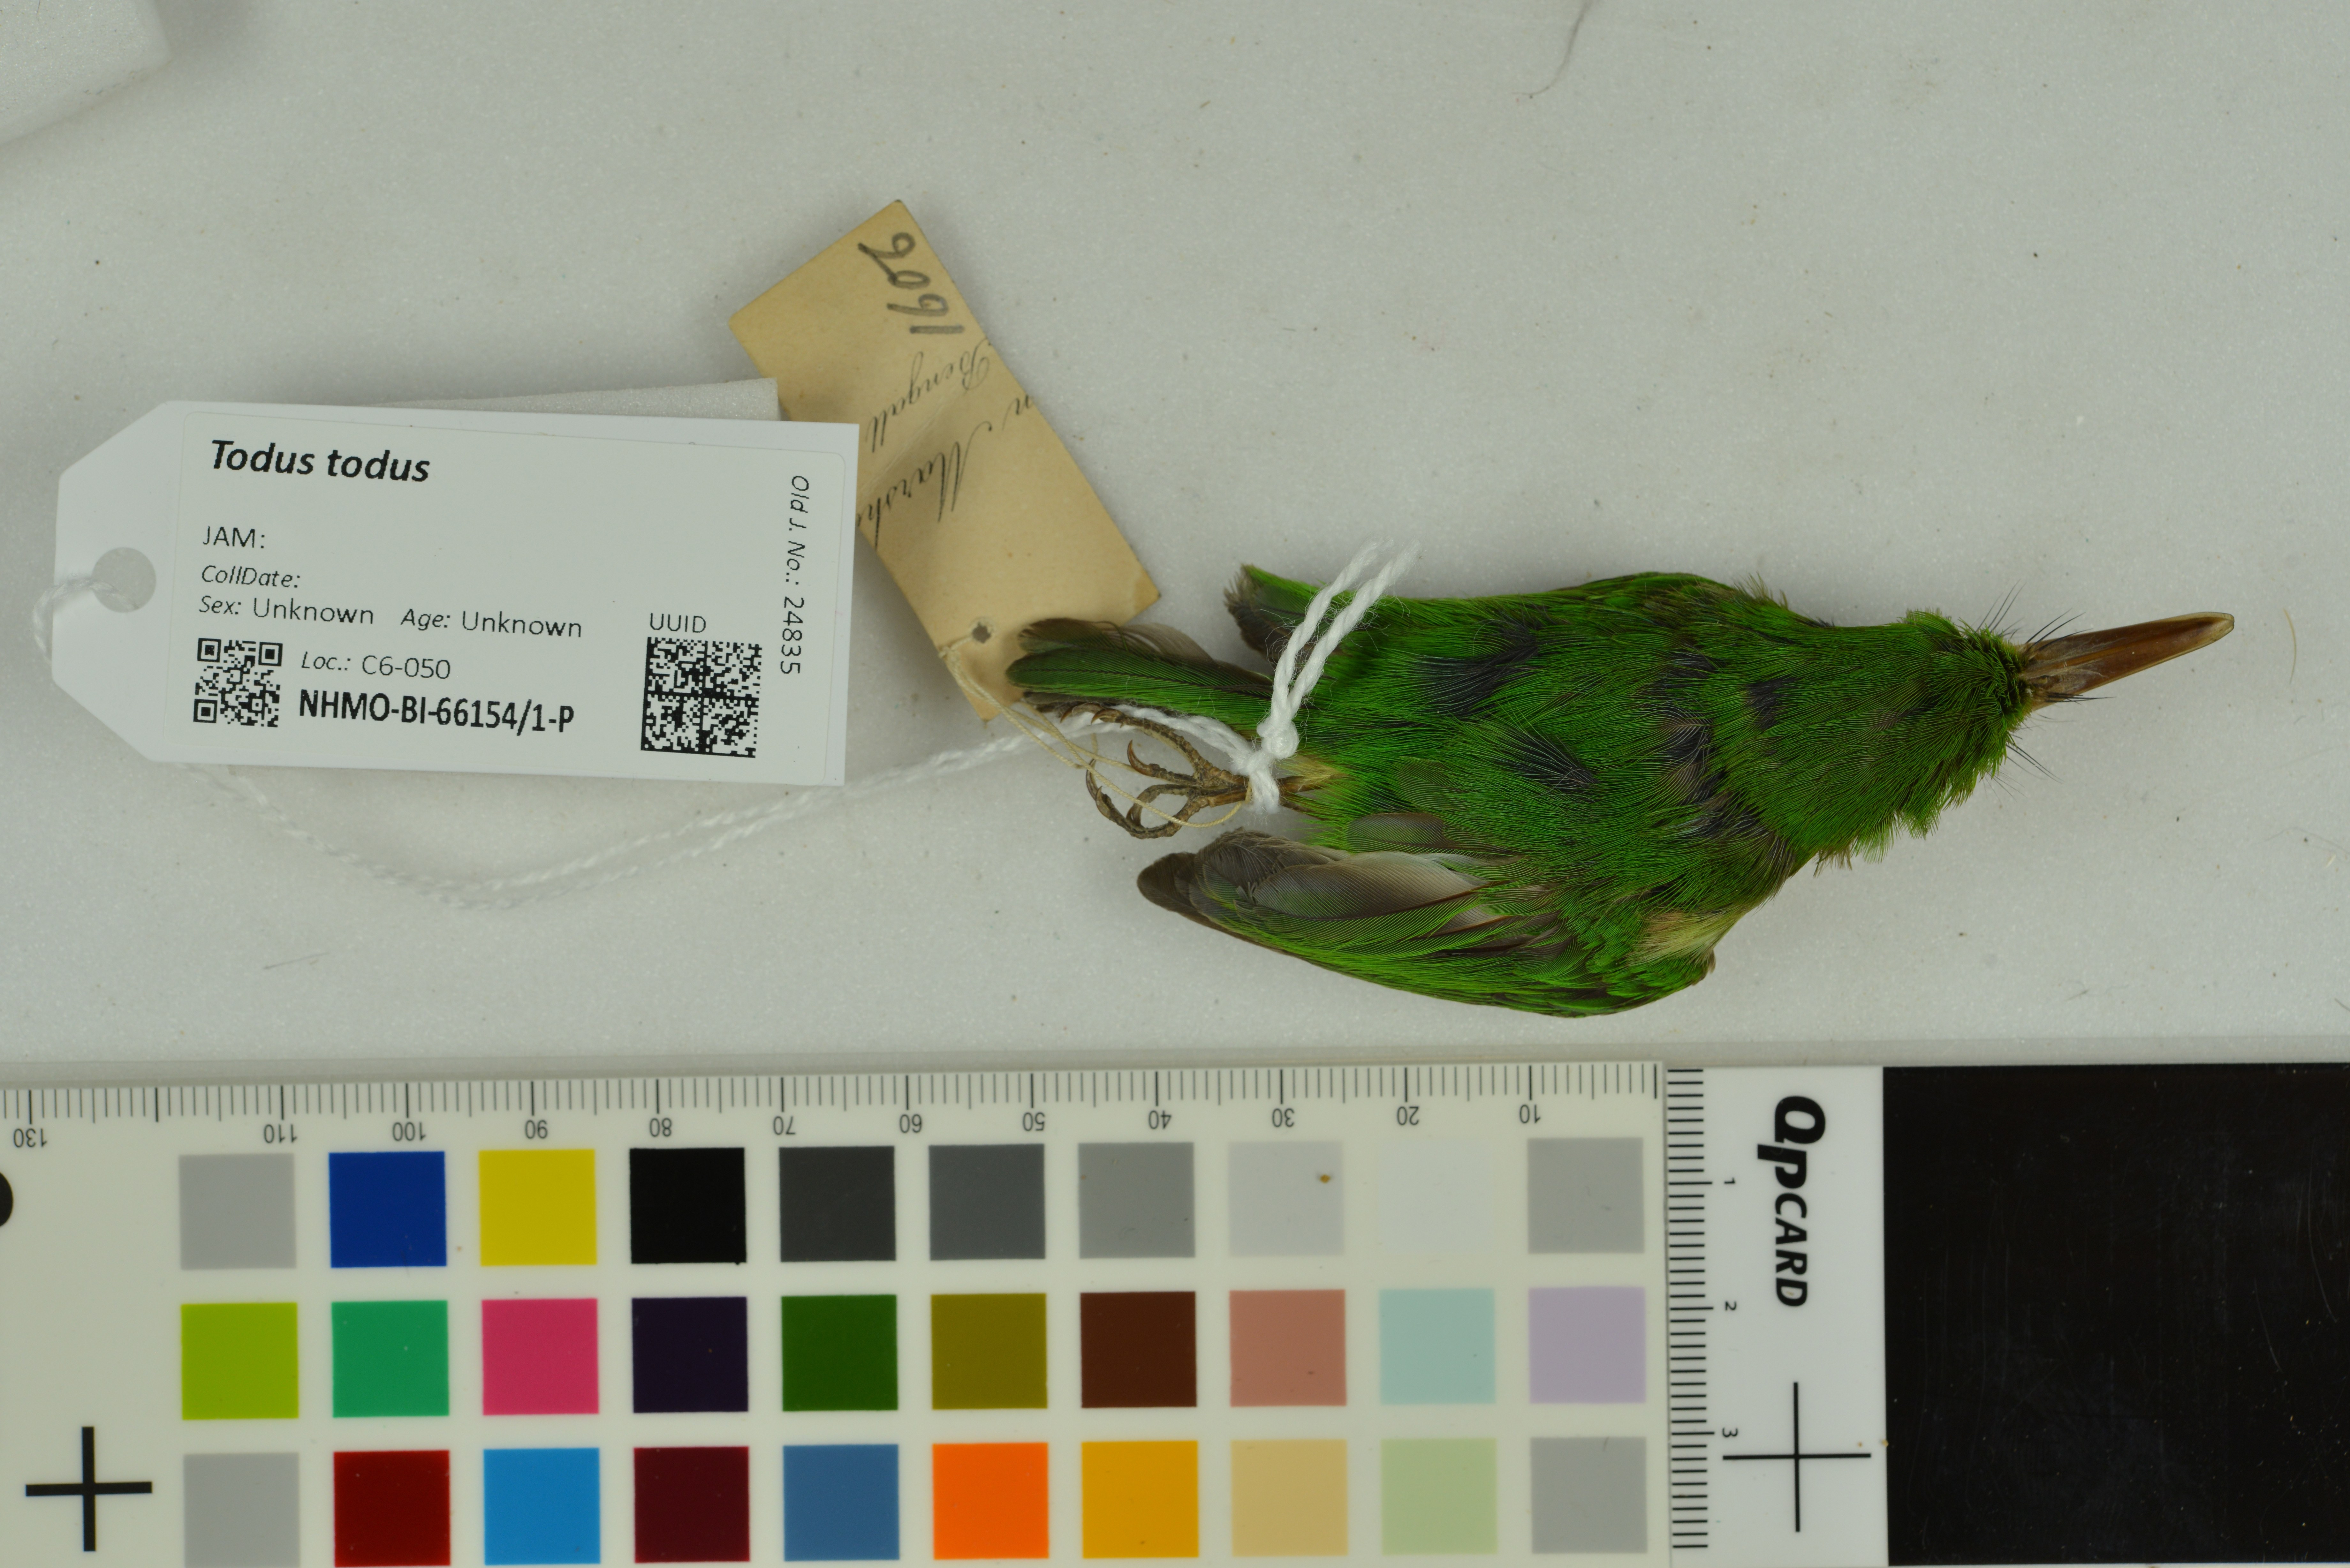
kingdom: Animalia
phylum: Chordata
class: Aves
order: Coraciiformes
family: Todidae
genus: Todus
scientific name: Todus todus
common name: Jamaican tody
